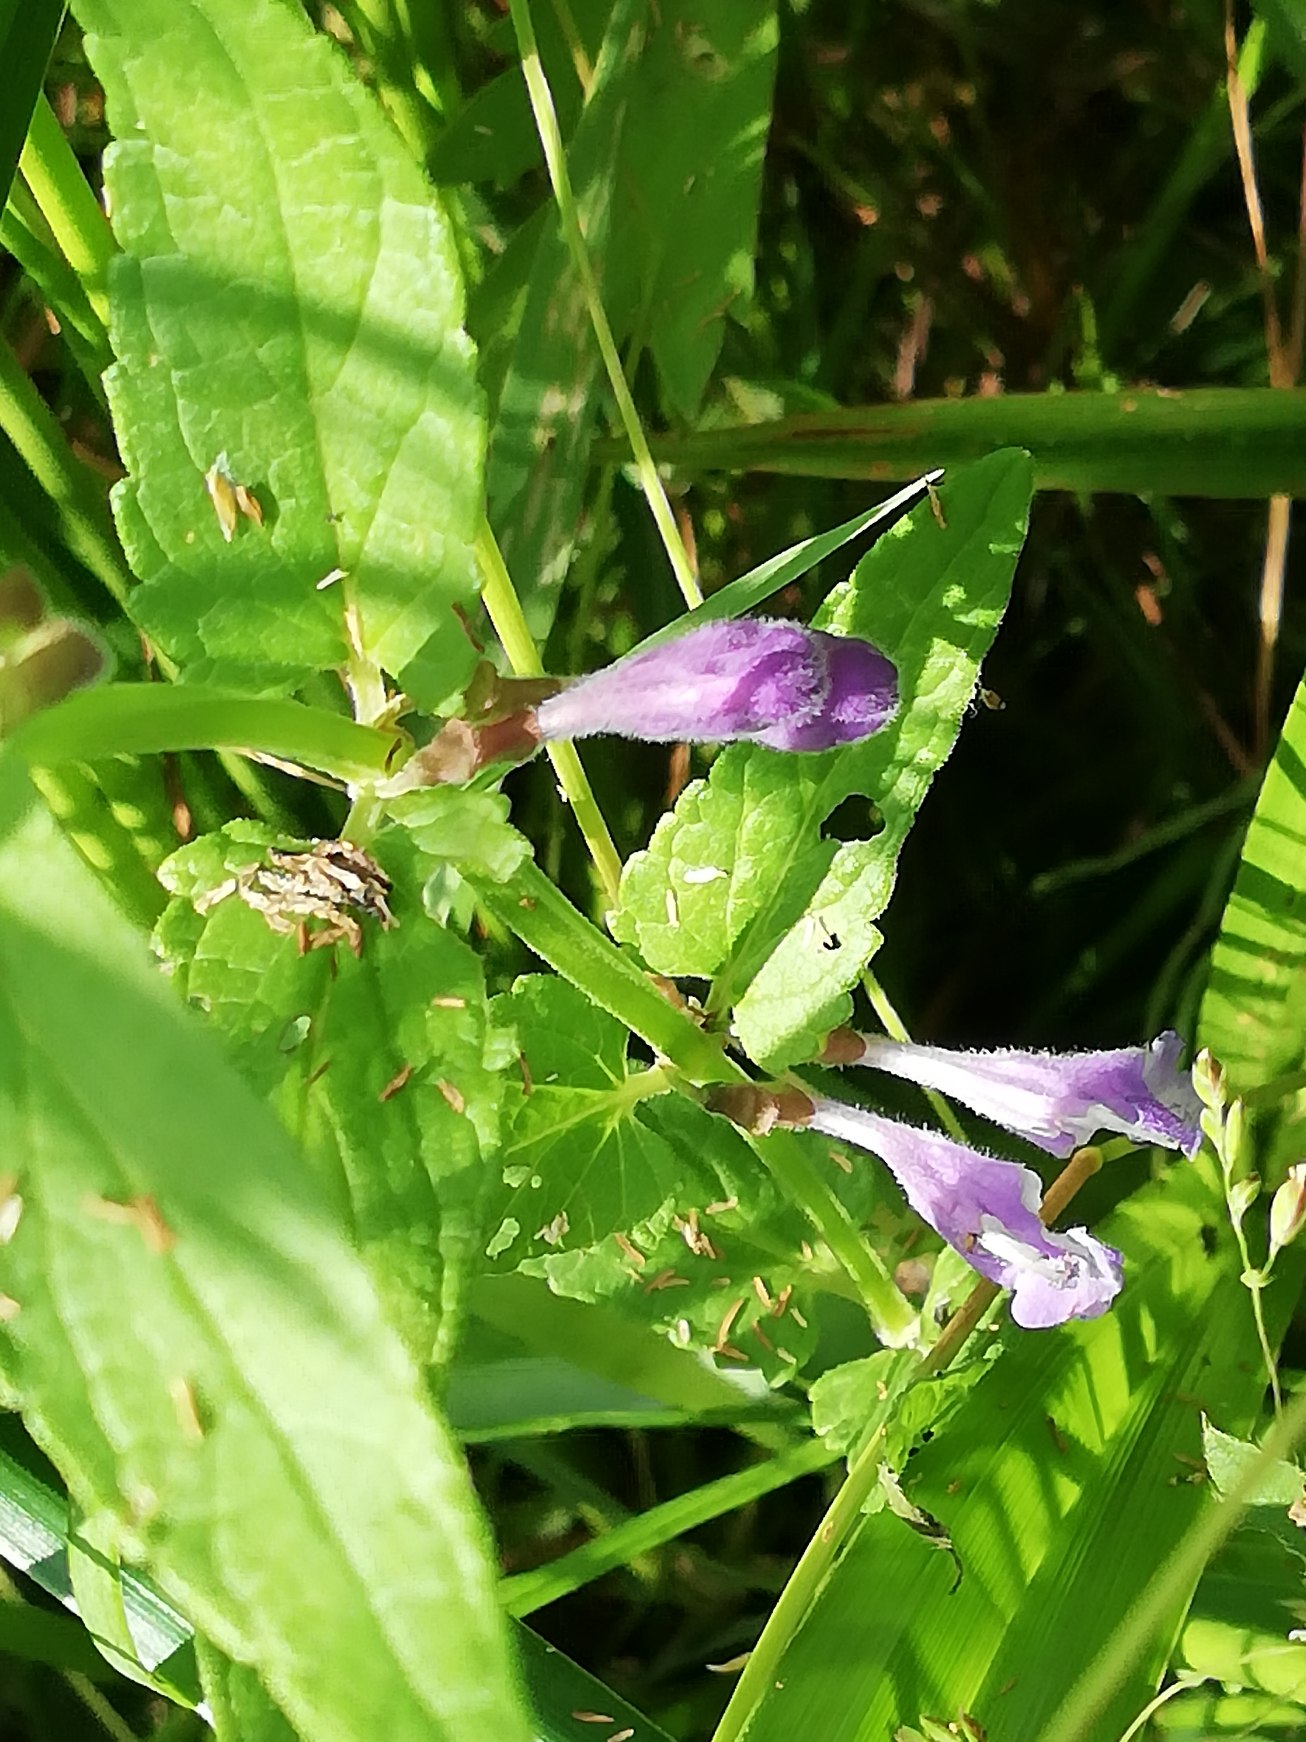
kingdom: Plantae
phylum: Tracheophyta
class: Magnoliopsida
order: Lamiales
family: Lamiaceae
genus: Scutellaria
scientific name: Scutellaria galericulata
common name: Almindelig skjolddrager
